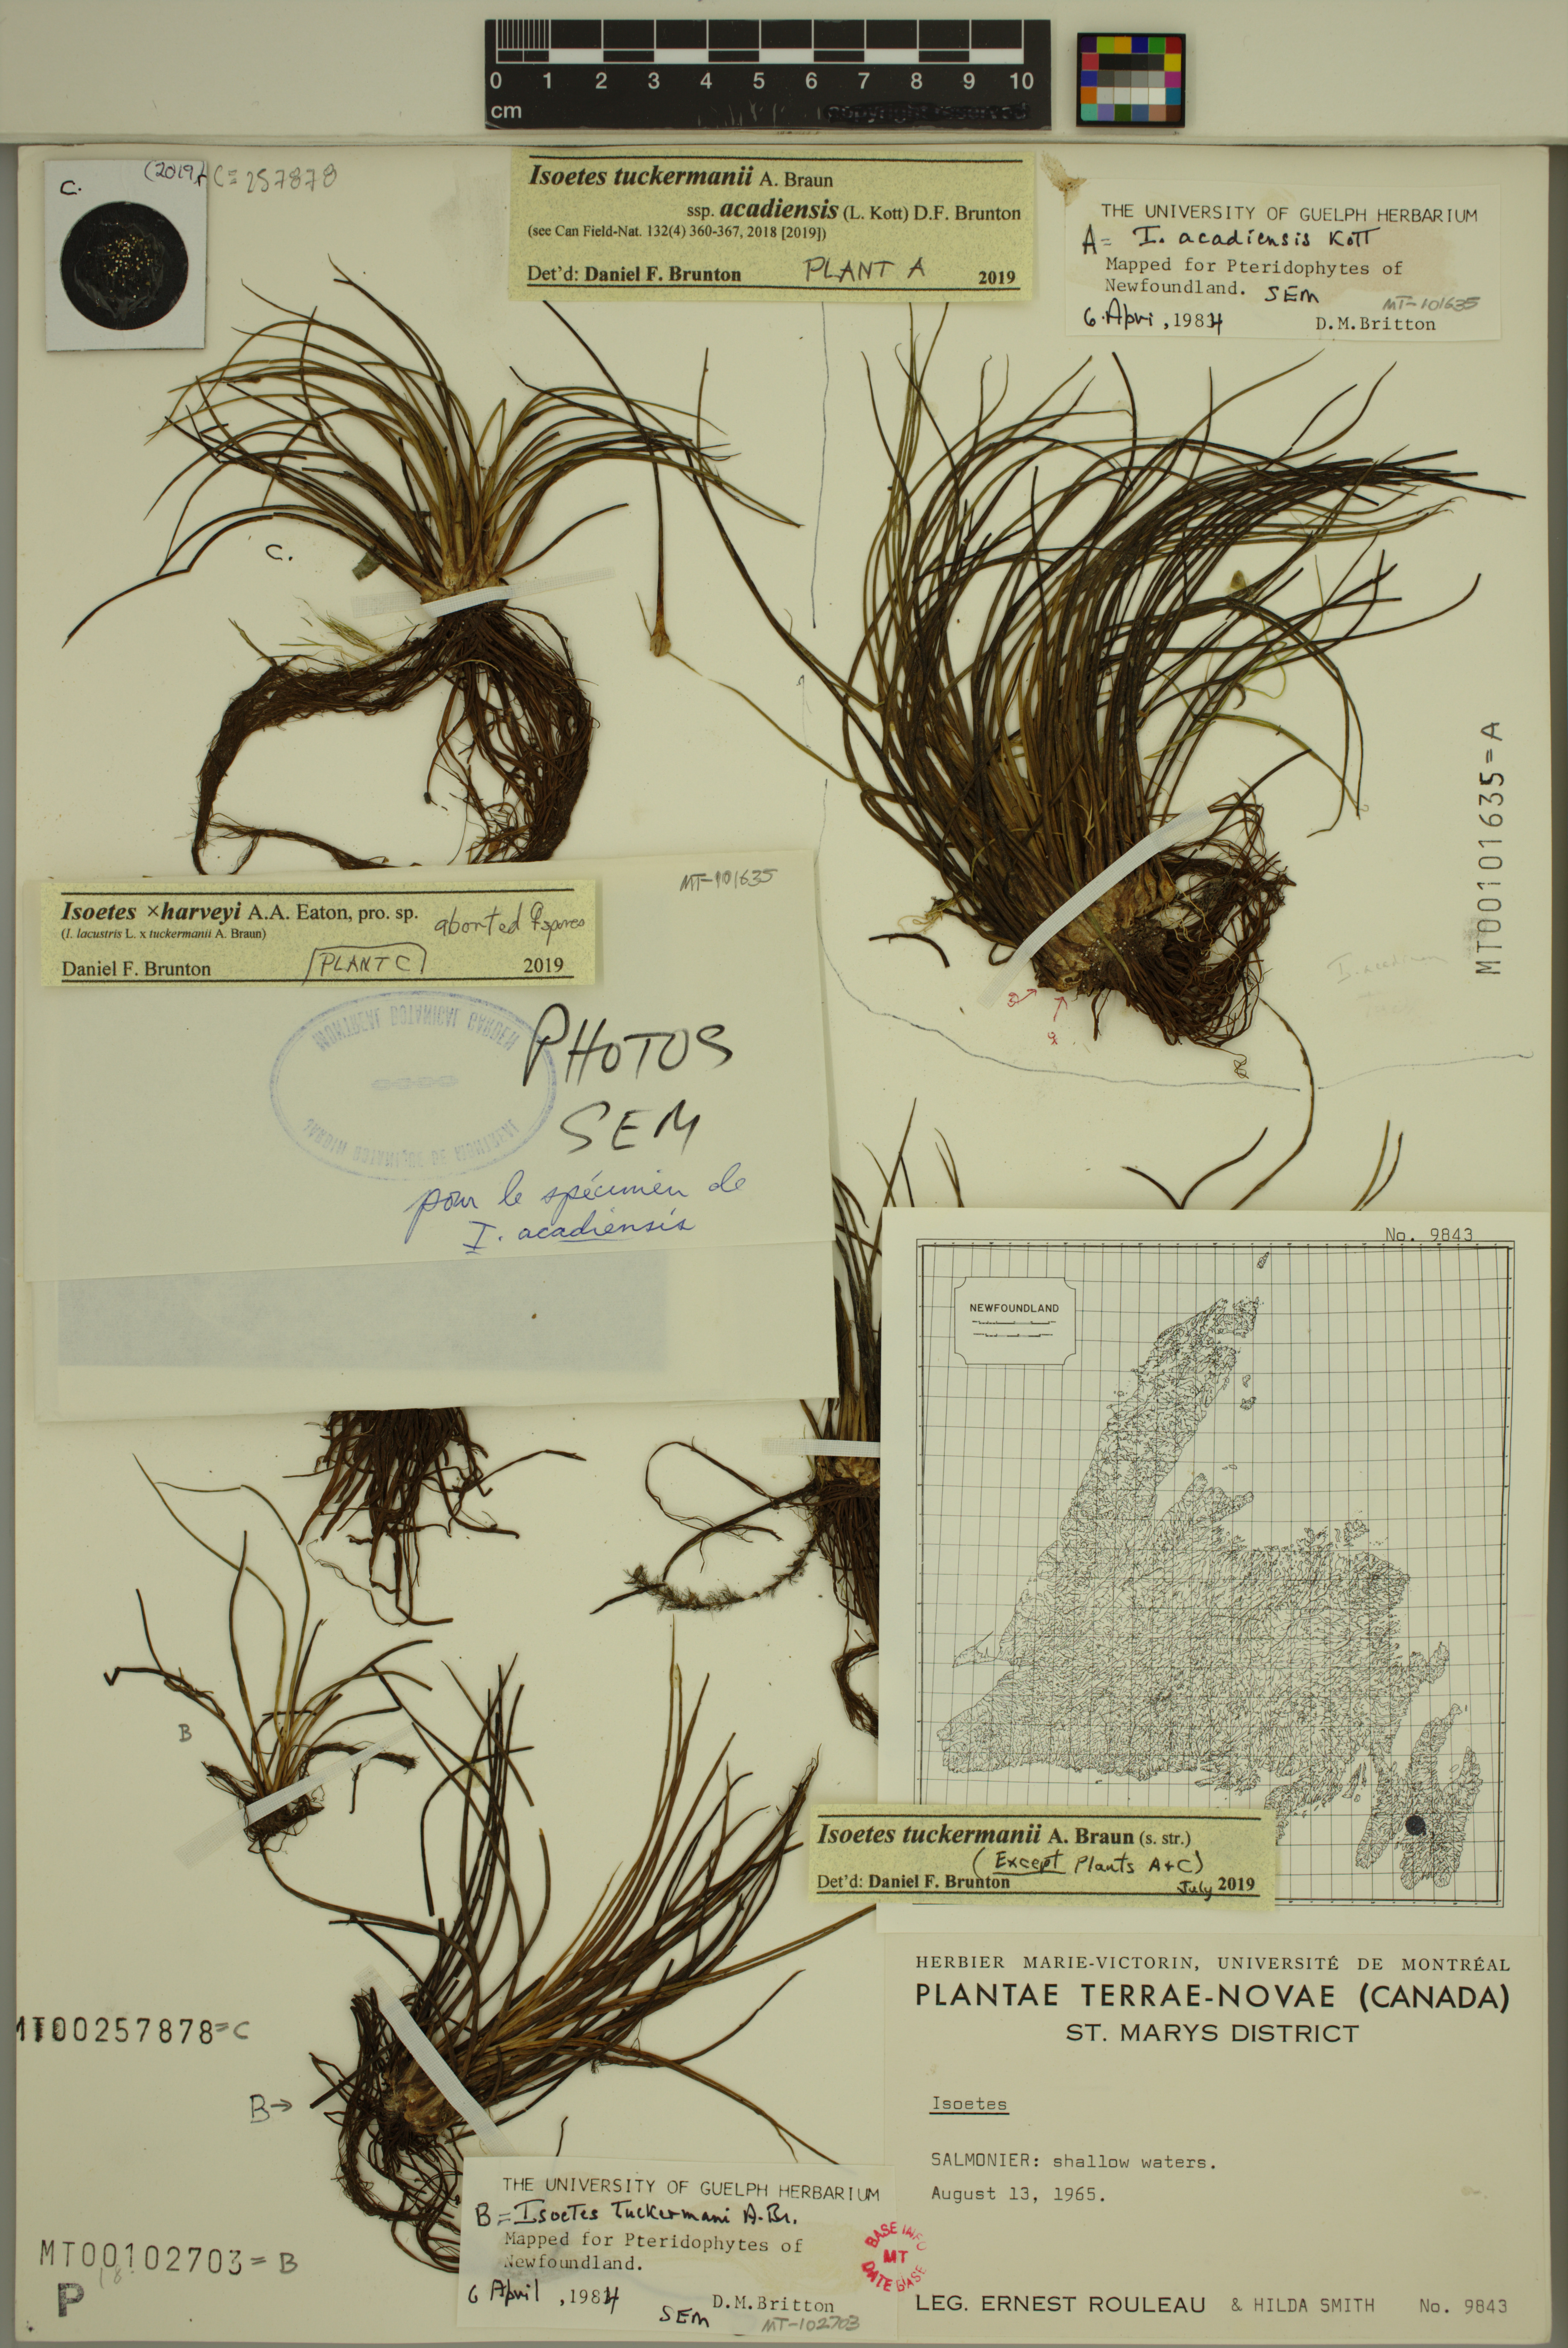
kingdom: Plantae
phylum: Tracheophyta
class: Lycopodiopsida
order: Isoetales
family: Isoetaceae
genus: Isoetes
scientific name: Isoetes harveyi
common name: Harvey's quillwort
